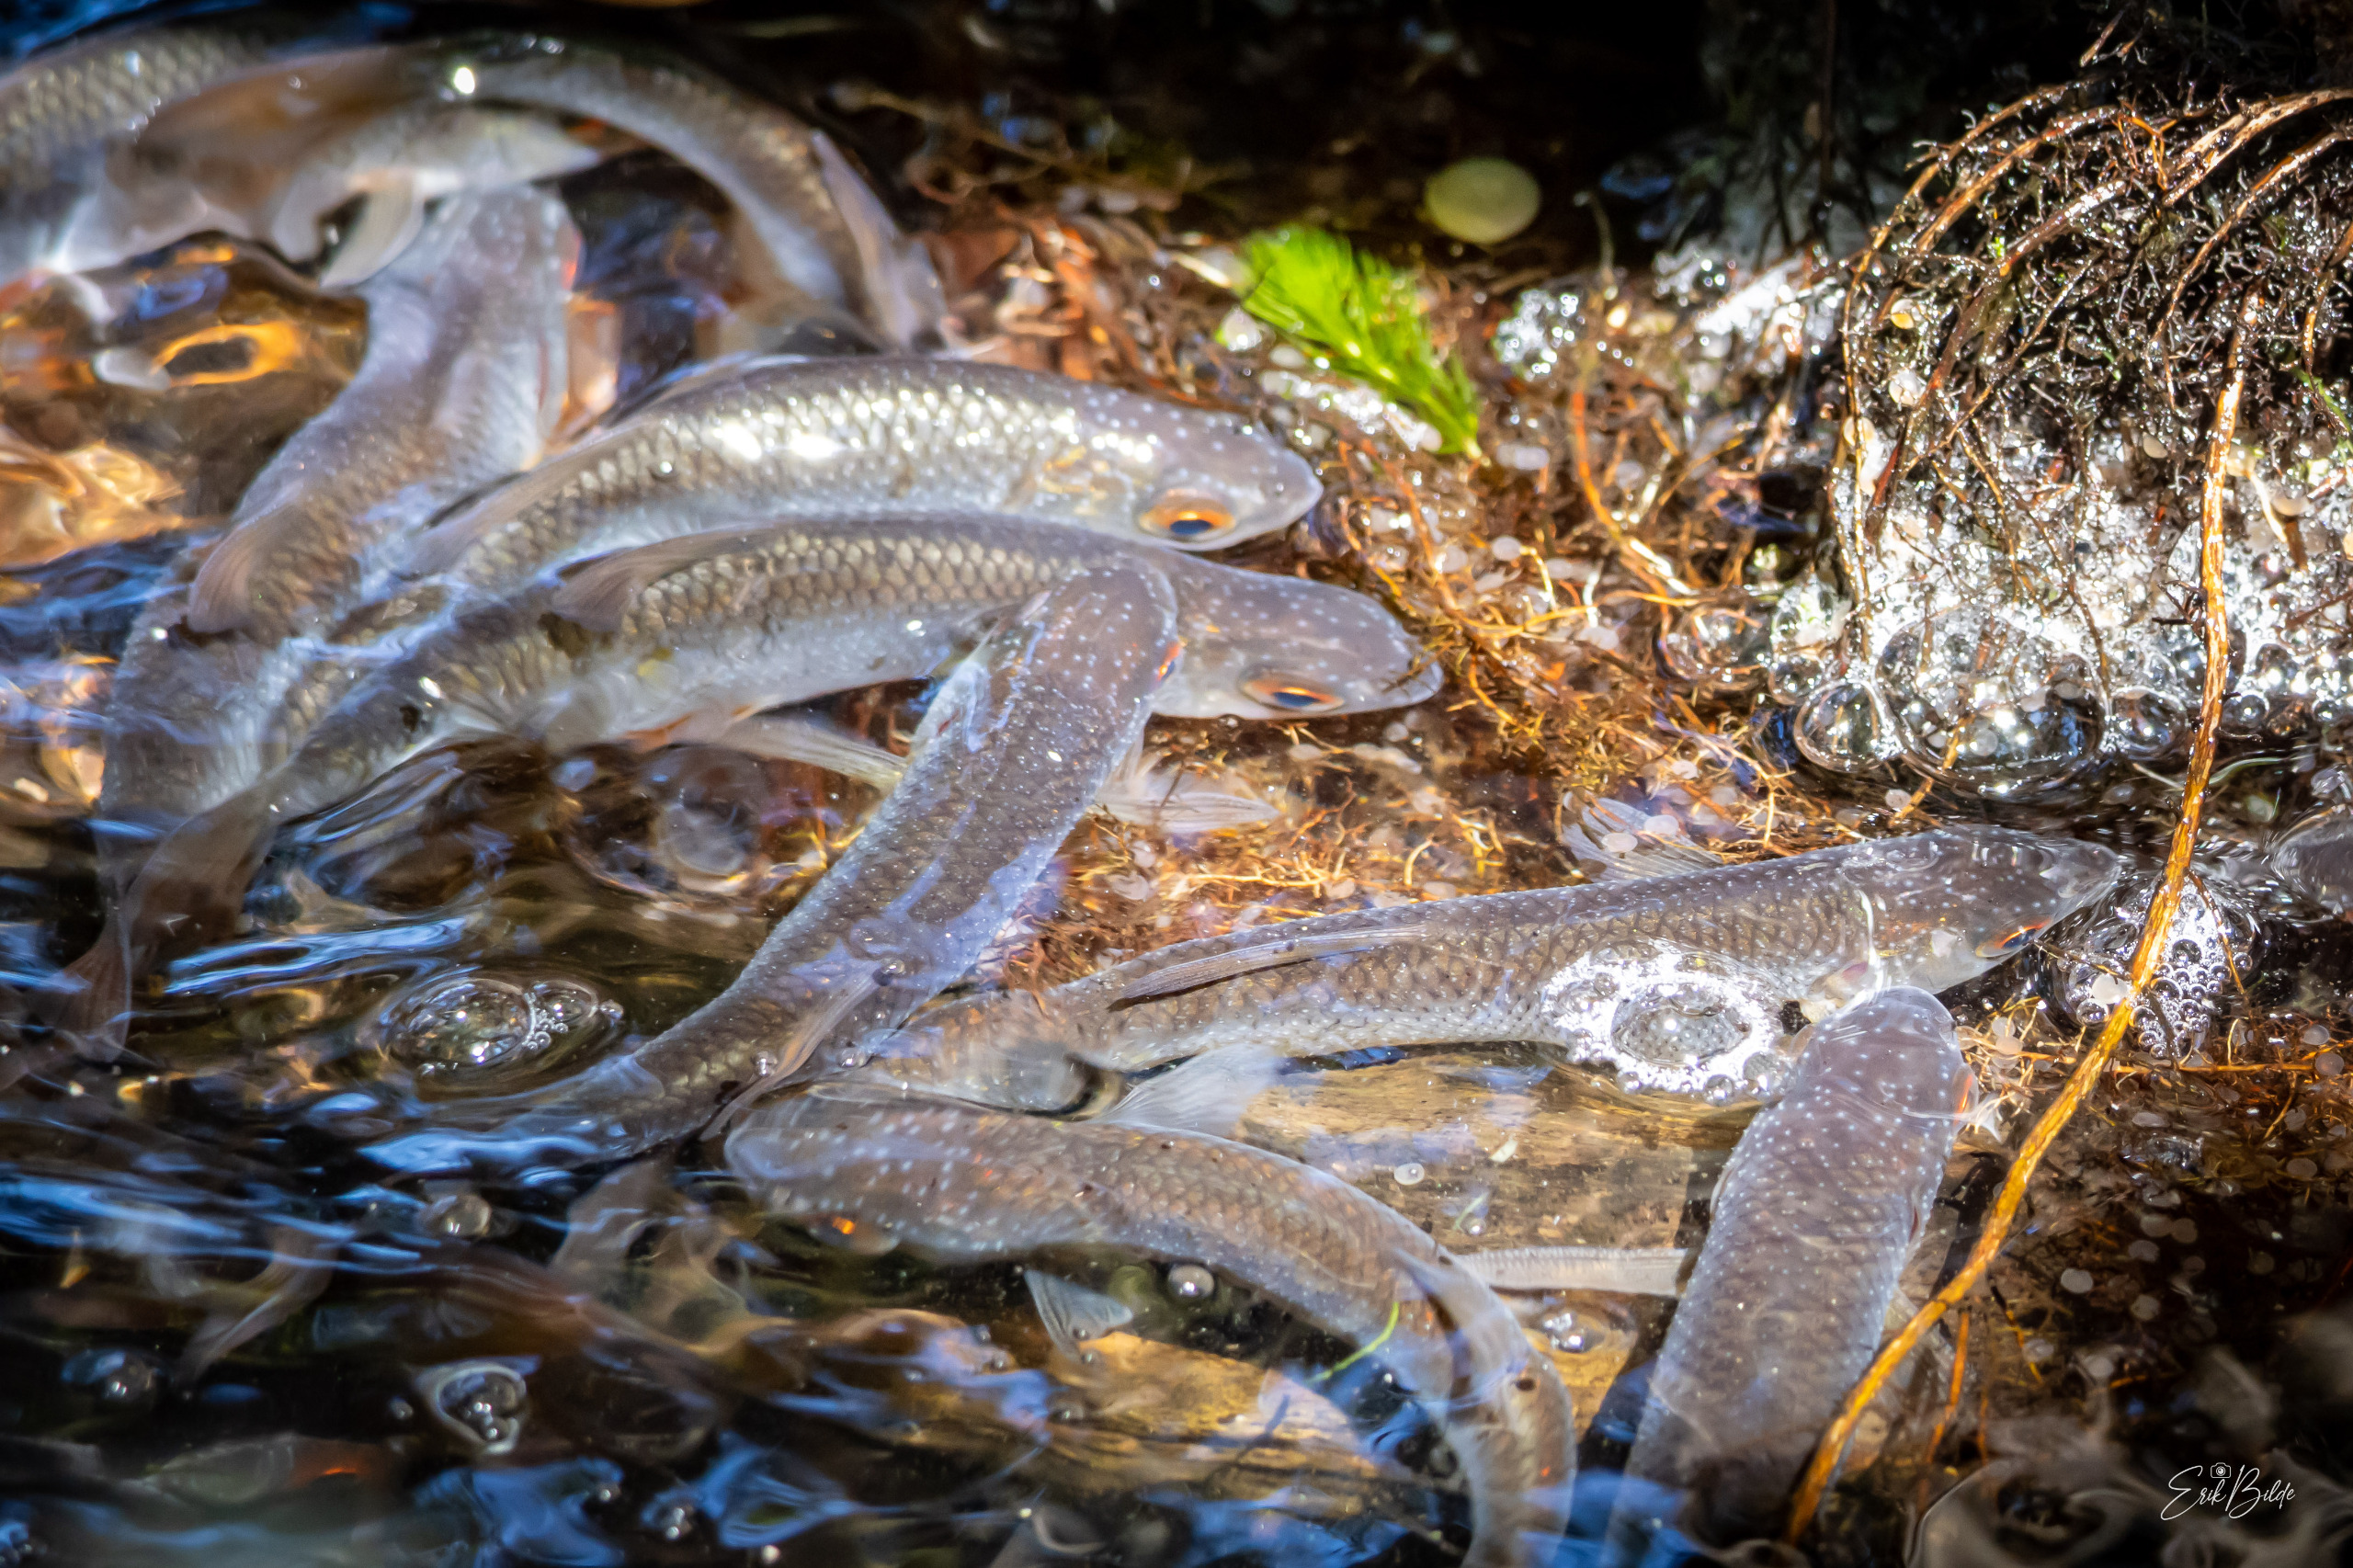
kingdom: Animalia
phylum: Chordata
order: Cypriniformes
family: Cyprinidae
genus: Rutilus
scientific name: Rutilus rutilus
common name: Skalle
